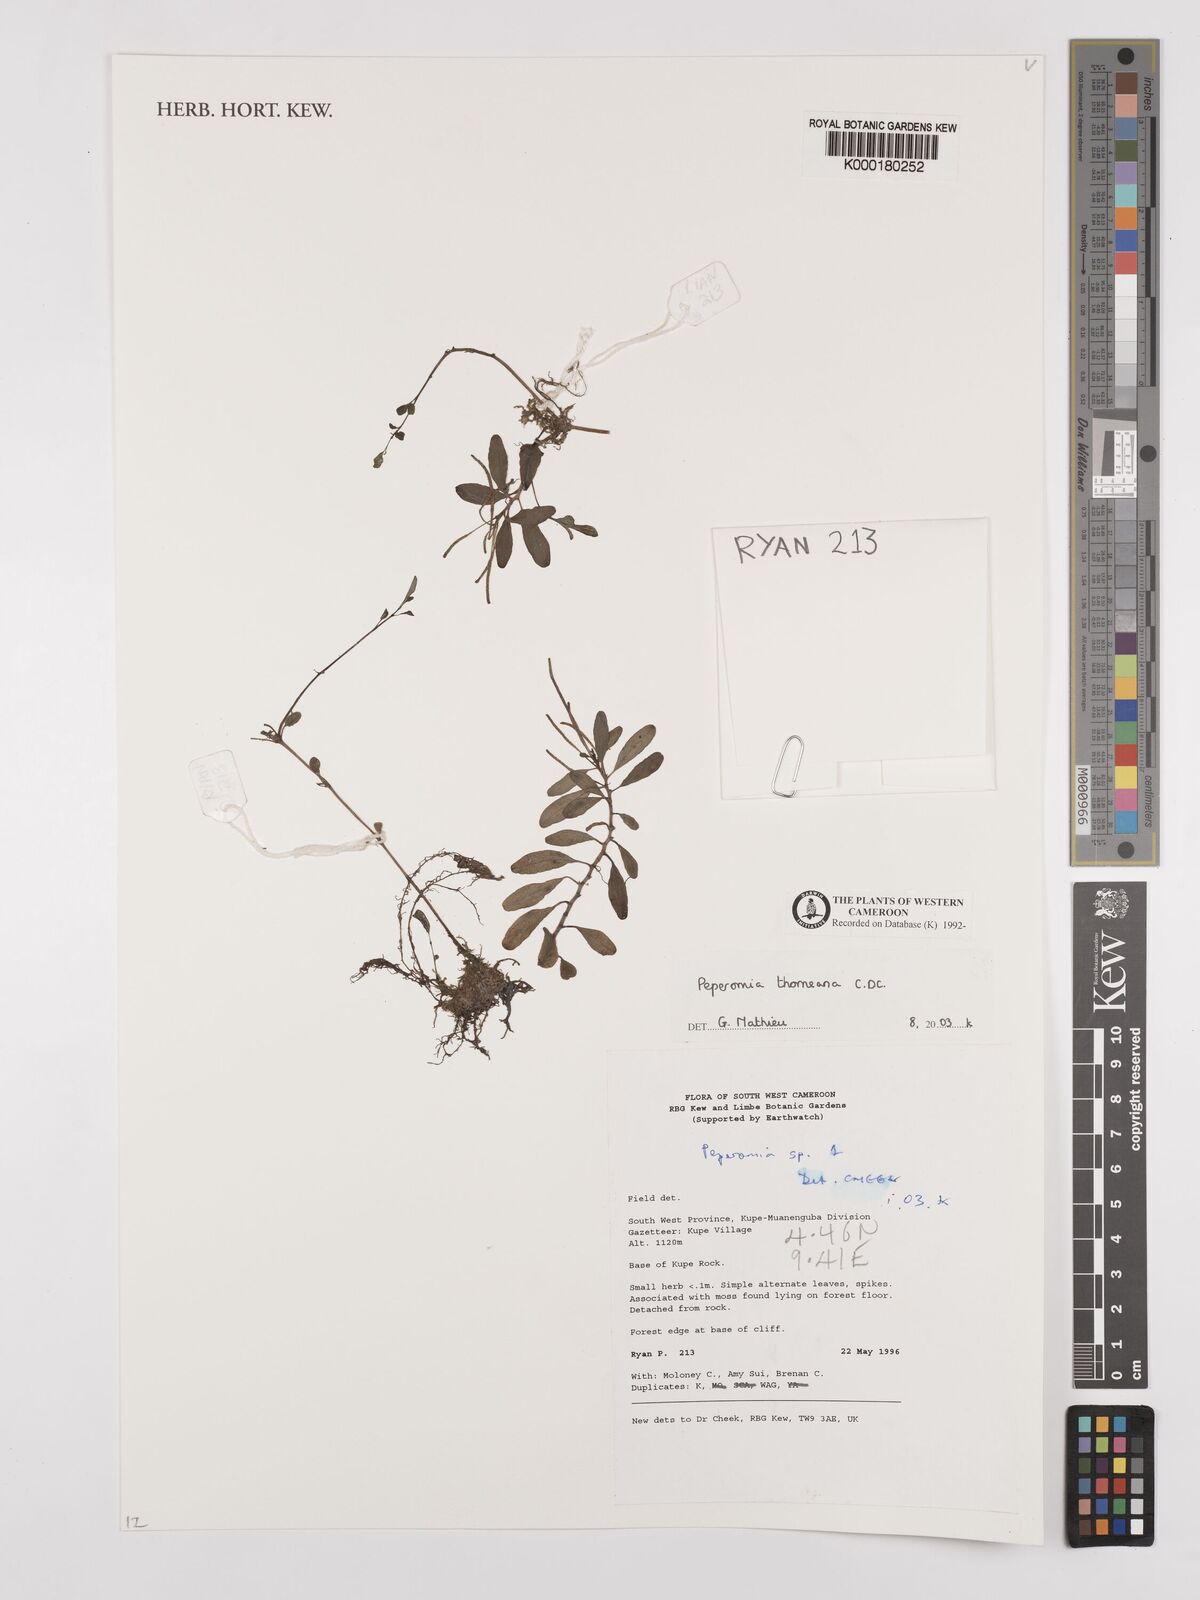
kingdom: Plantae
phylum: Tracheophyta
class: Magnoliopsida
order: Piperales
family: Piperaceae
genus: Peperomia
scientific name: Peperomia thomeana
